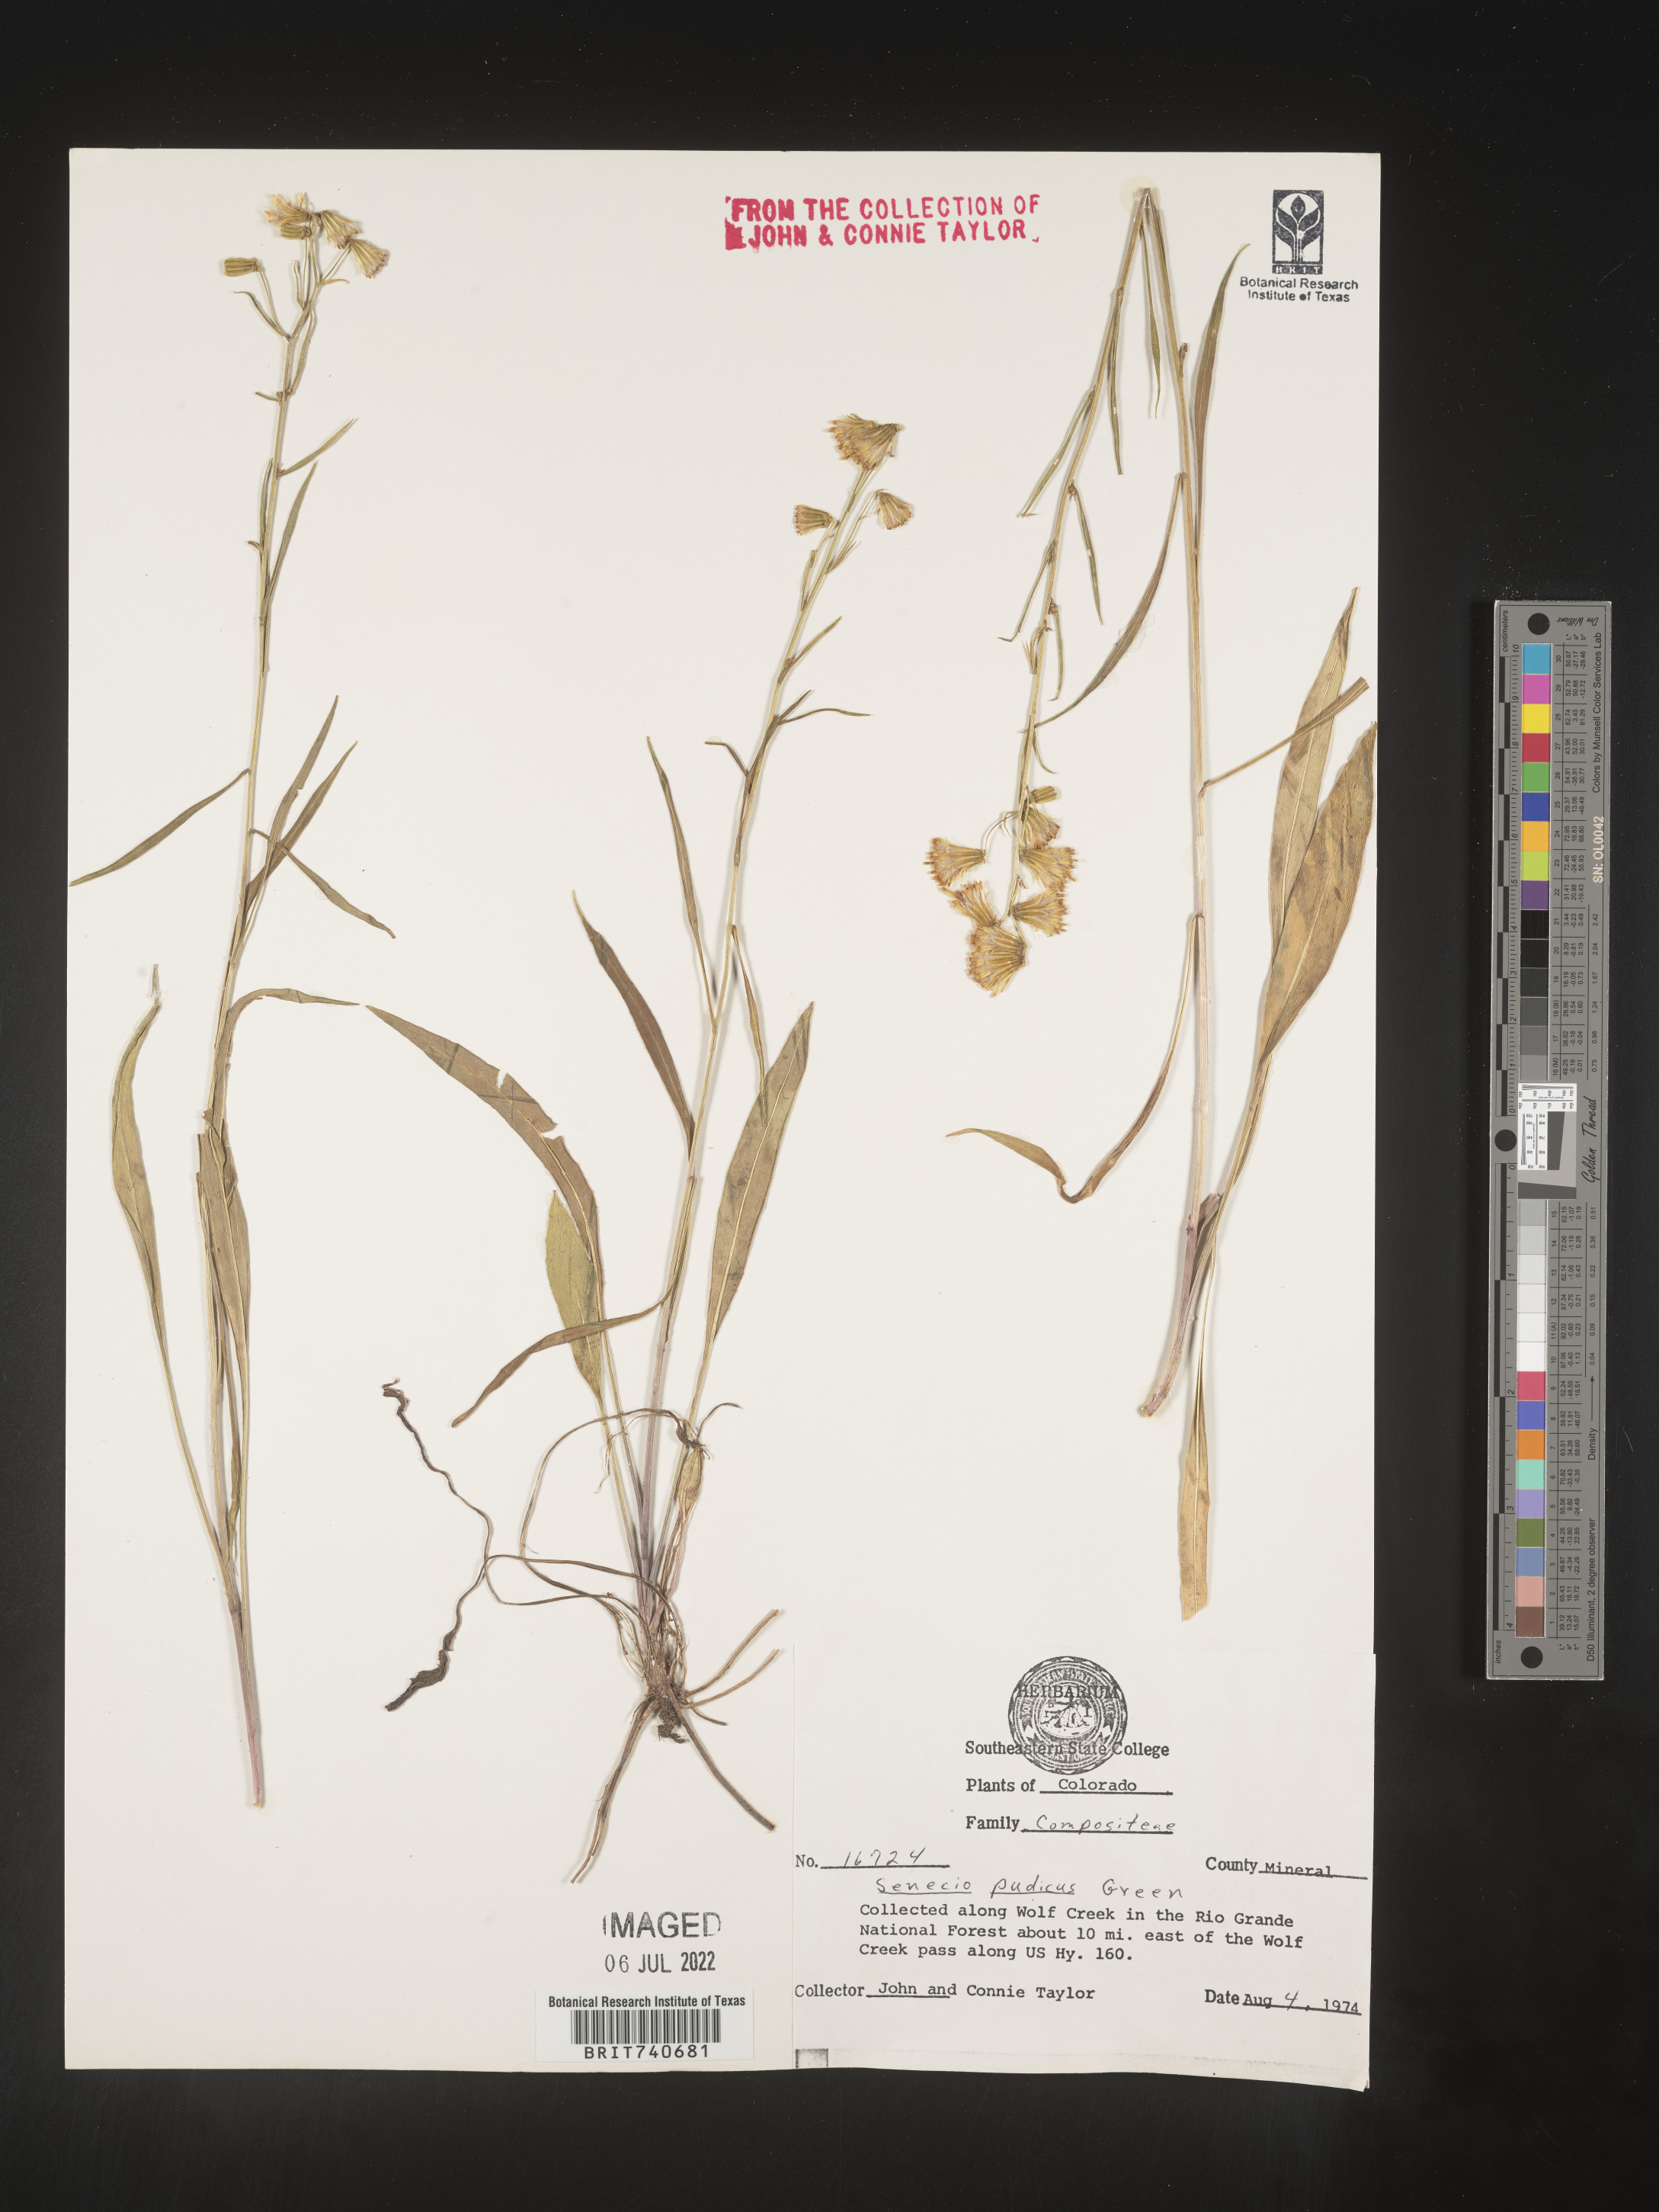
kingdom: Plantae
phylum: Tracheophyta
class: Magnoliopsida
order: Asterales
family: Asteraceae
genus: Senecio
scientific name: Senecio pudicus
